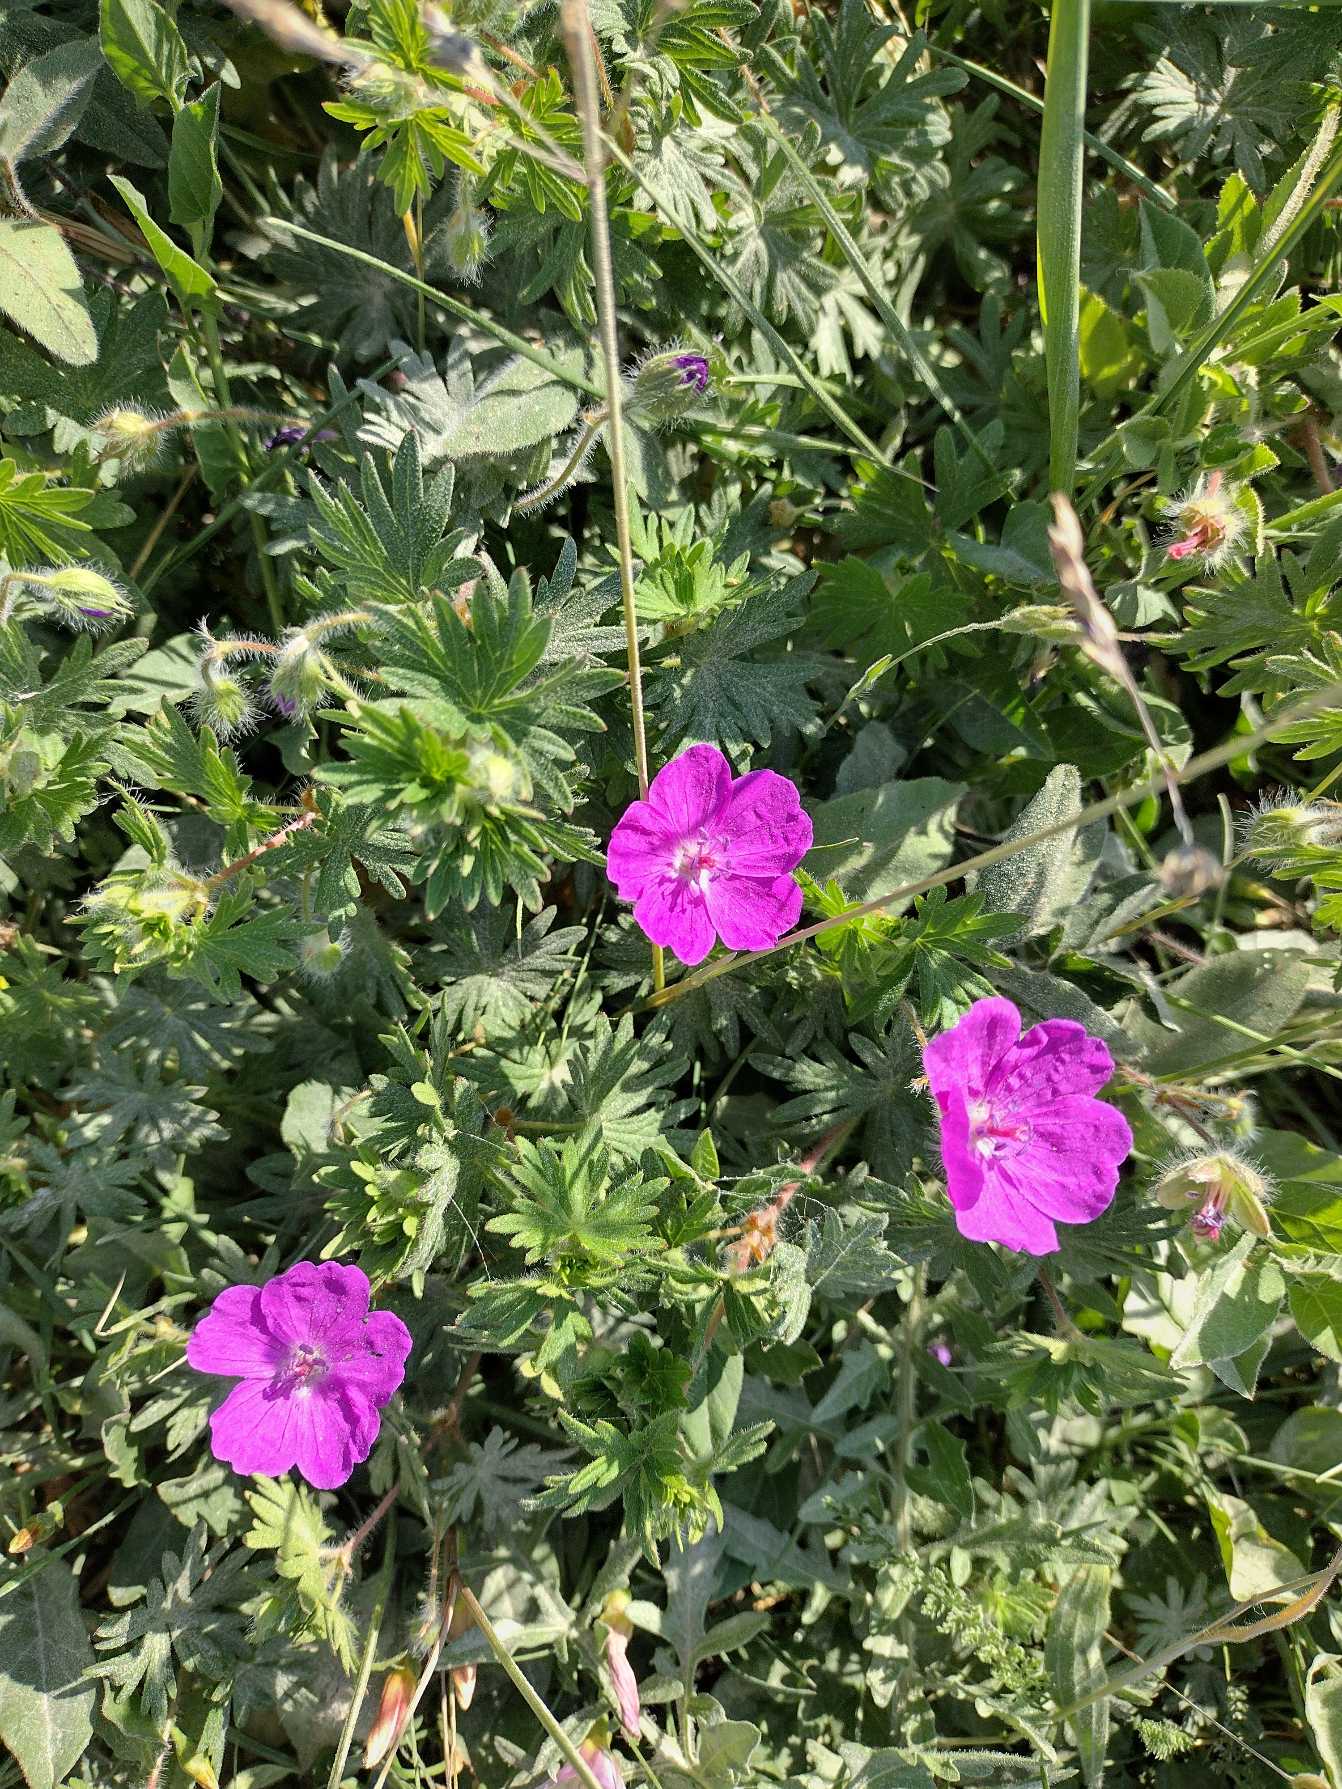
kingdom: Plantae
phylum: Tracheophyta
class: Magnoliopsida
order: Geraniales
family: Geraniaceae
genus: Geranium
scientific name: Geranium sanguineum
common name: Blodrød storkenæb
